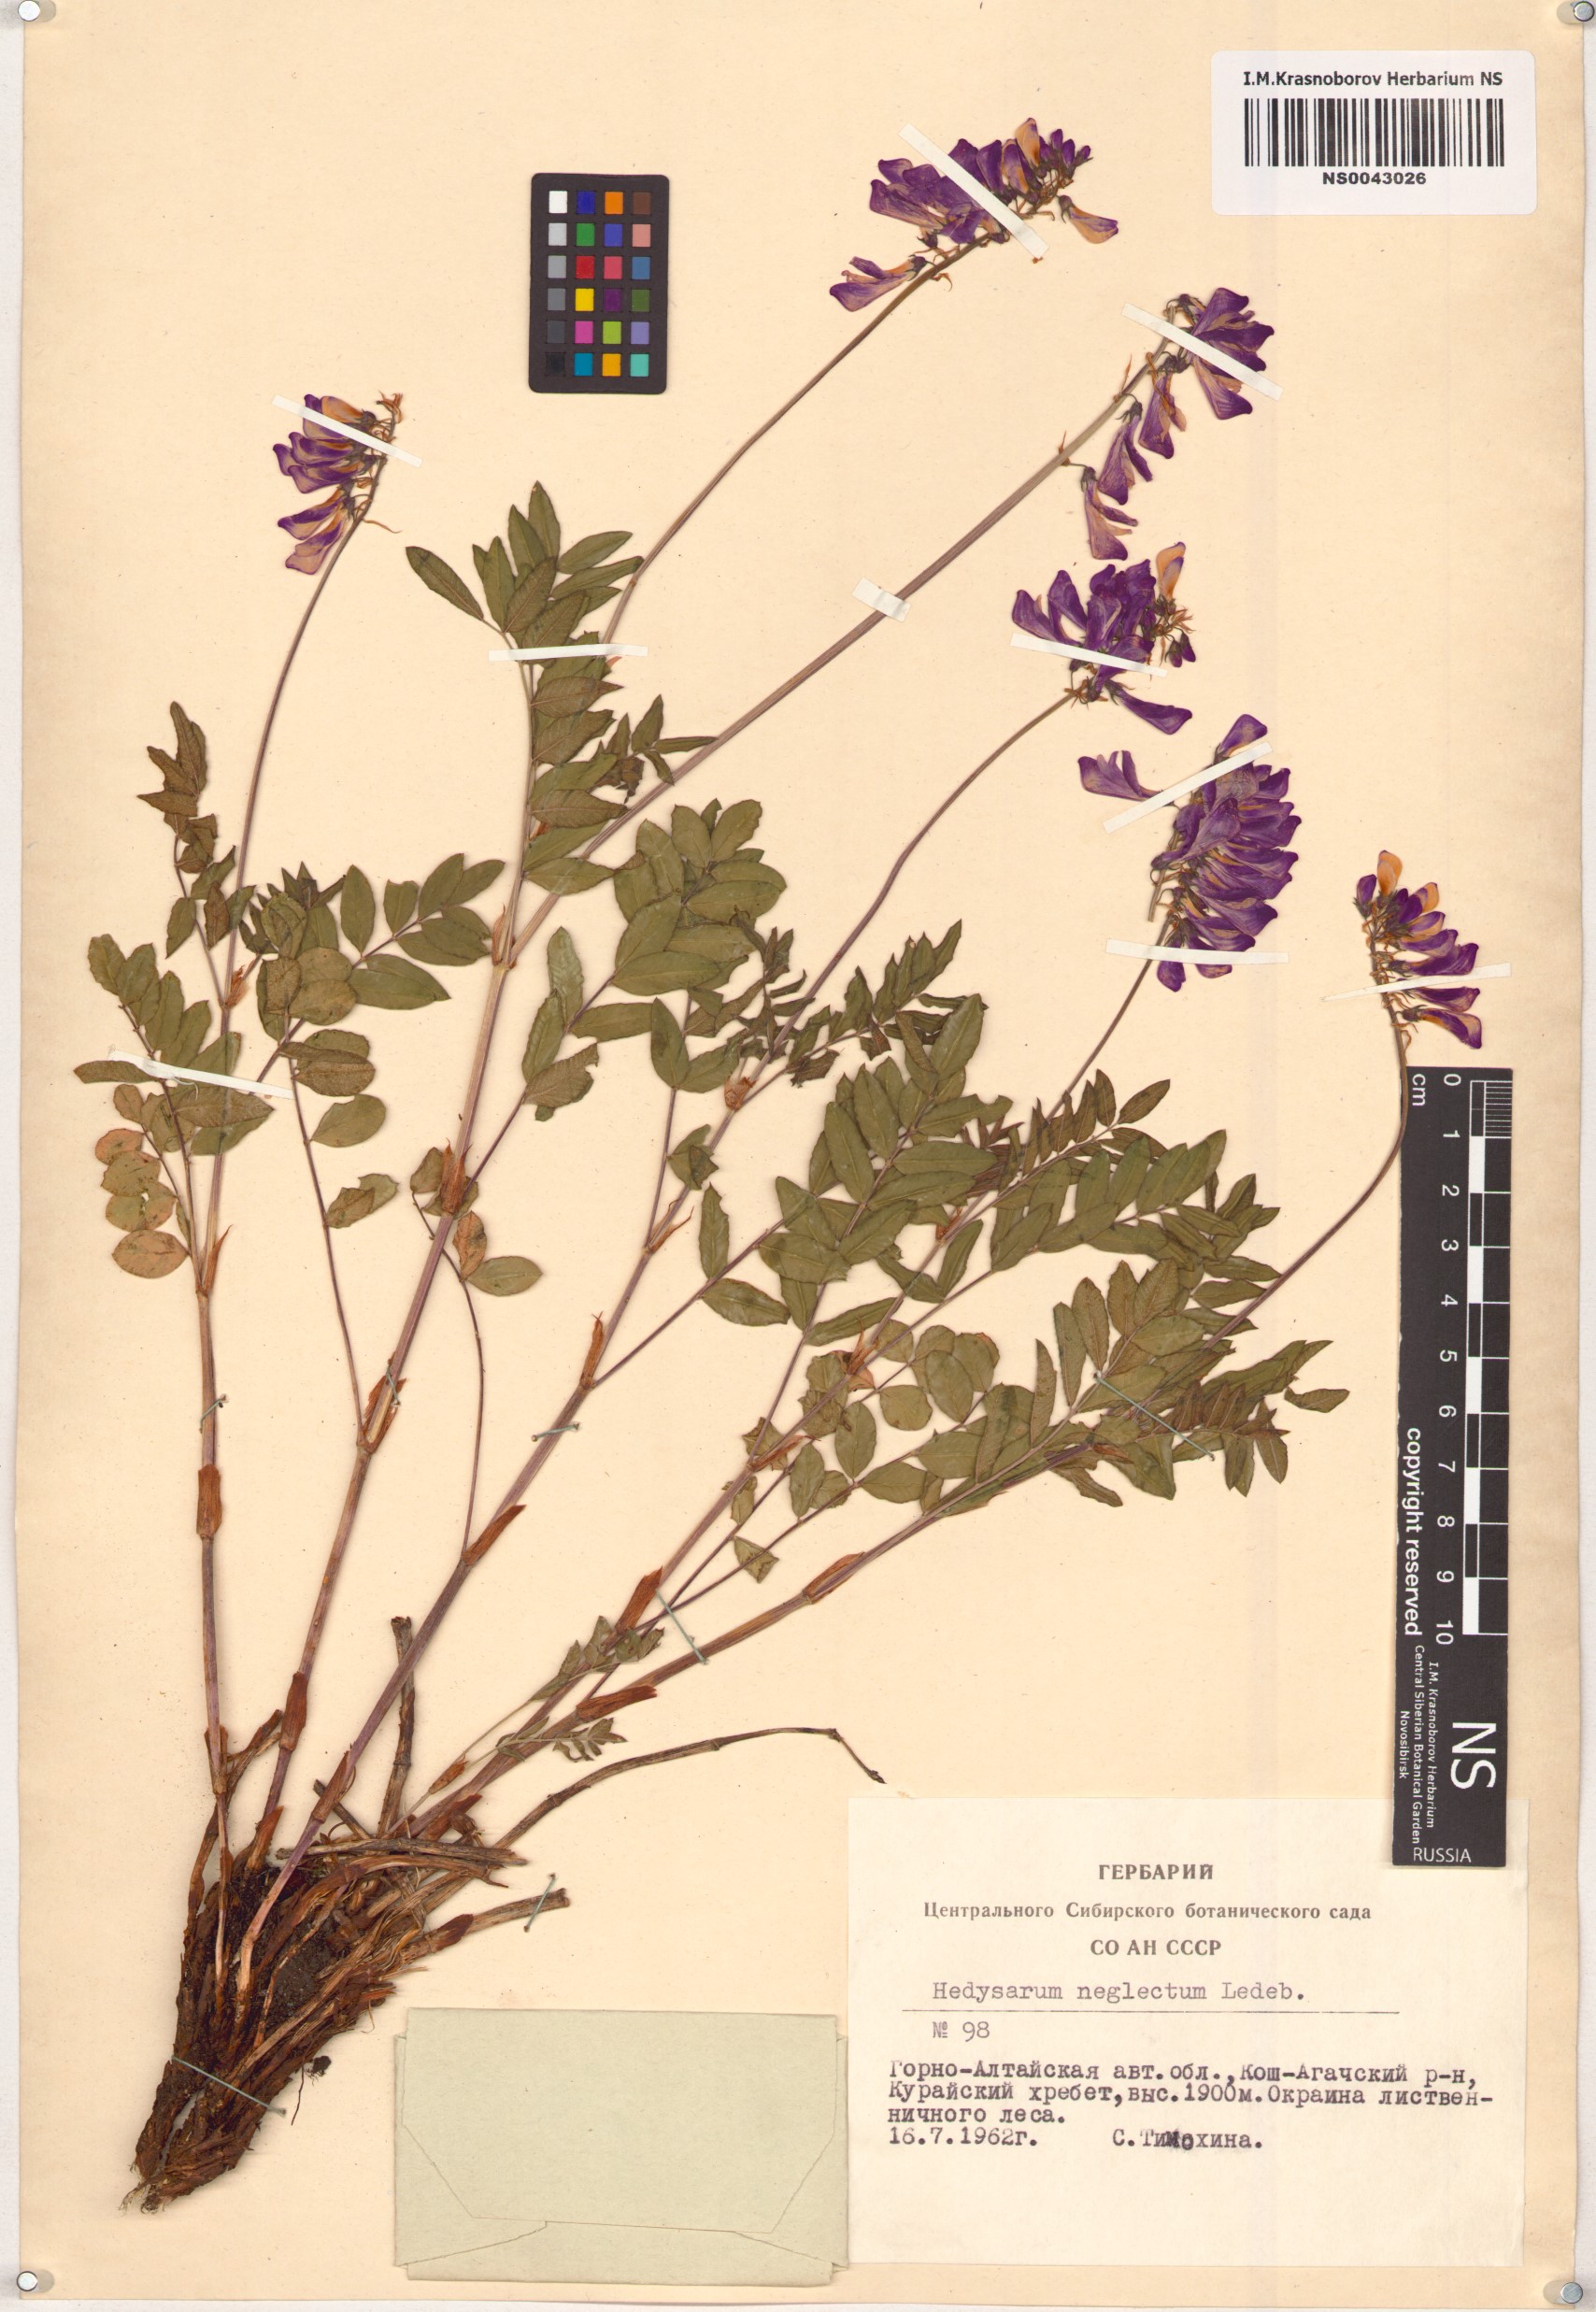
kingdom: Plantae
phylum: Tracheophyta
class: Magnoliopsida
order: Fabales
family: Fabaceae
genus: Hedysarum
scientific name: Hedysarum neglectum
